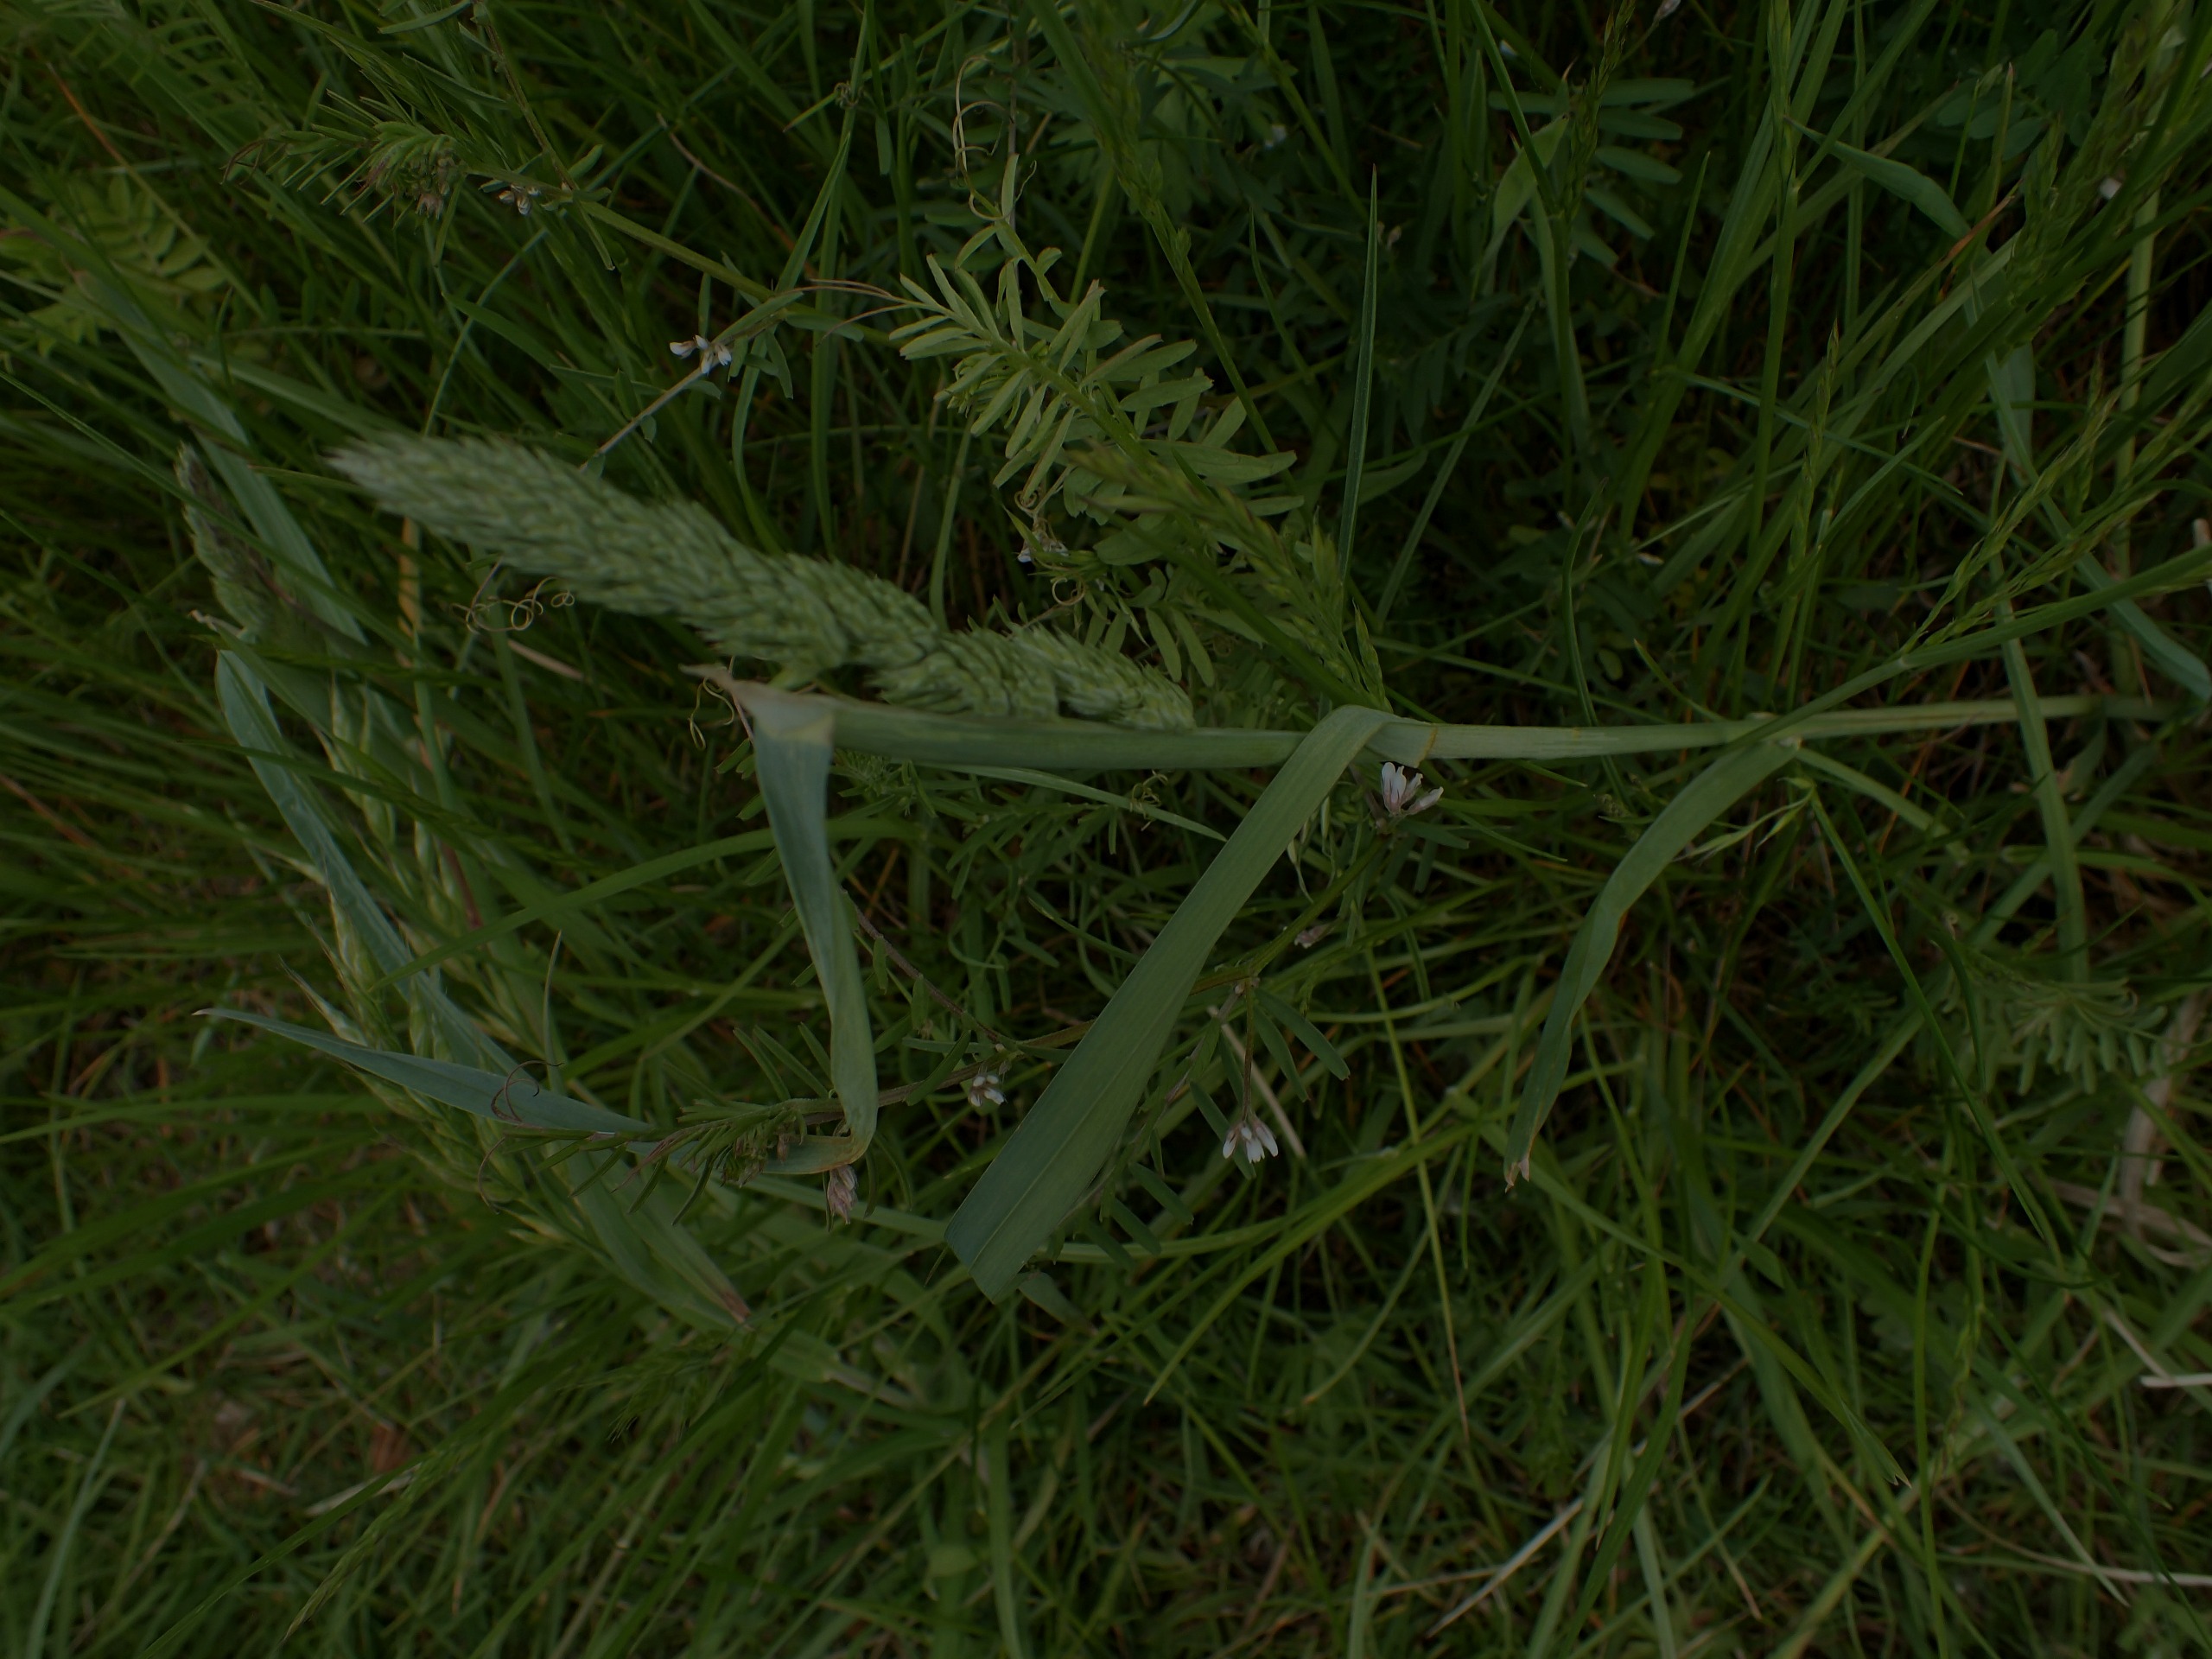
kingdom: Plantae
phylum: Tracheophyta
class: Liliopsida
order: Poales
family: Poaceae
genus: Dactylis
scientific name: Dactylis glomerata
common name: Almindelig hundegræs
